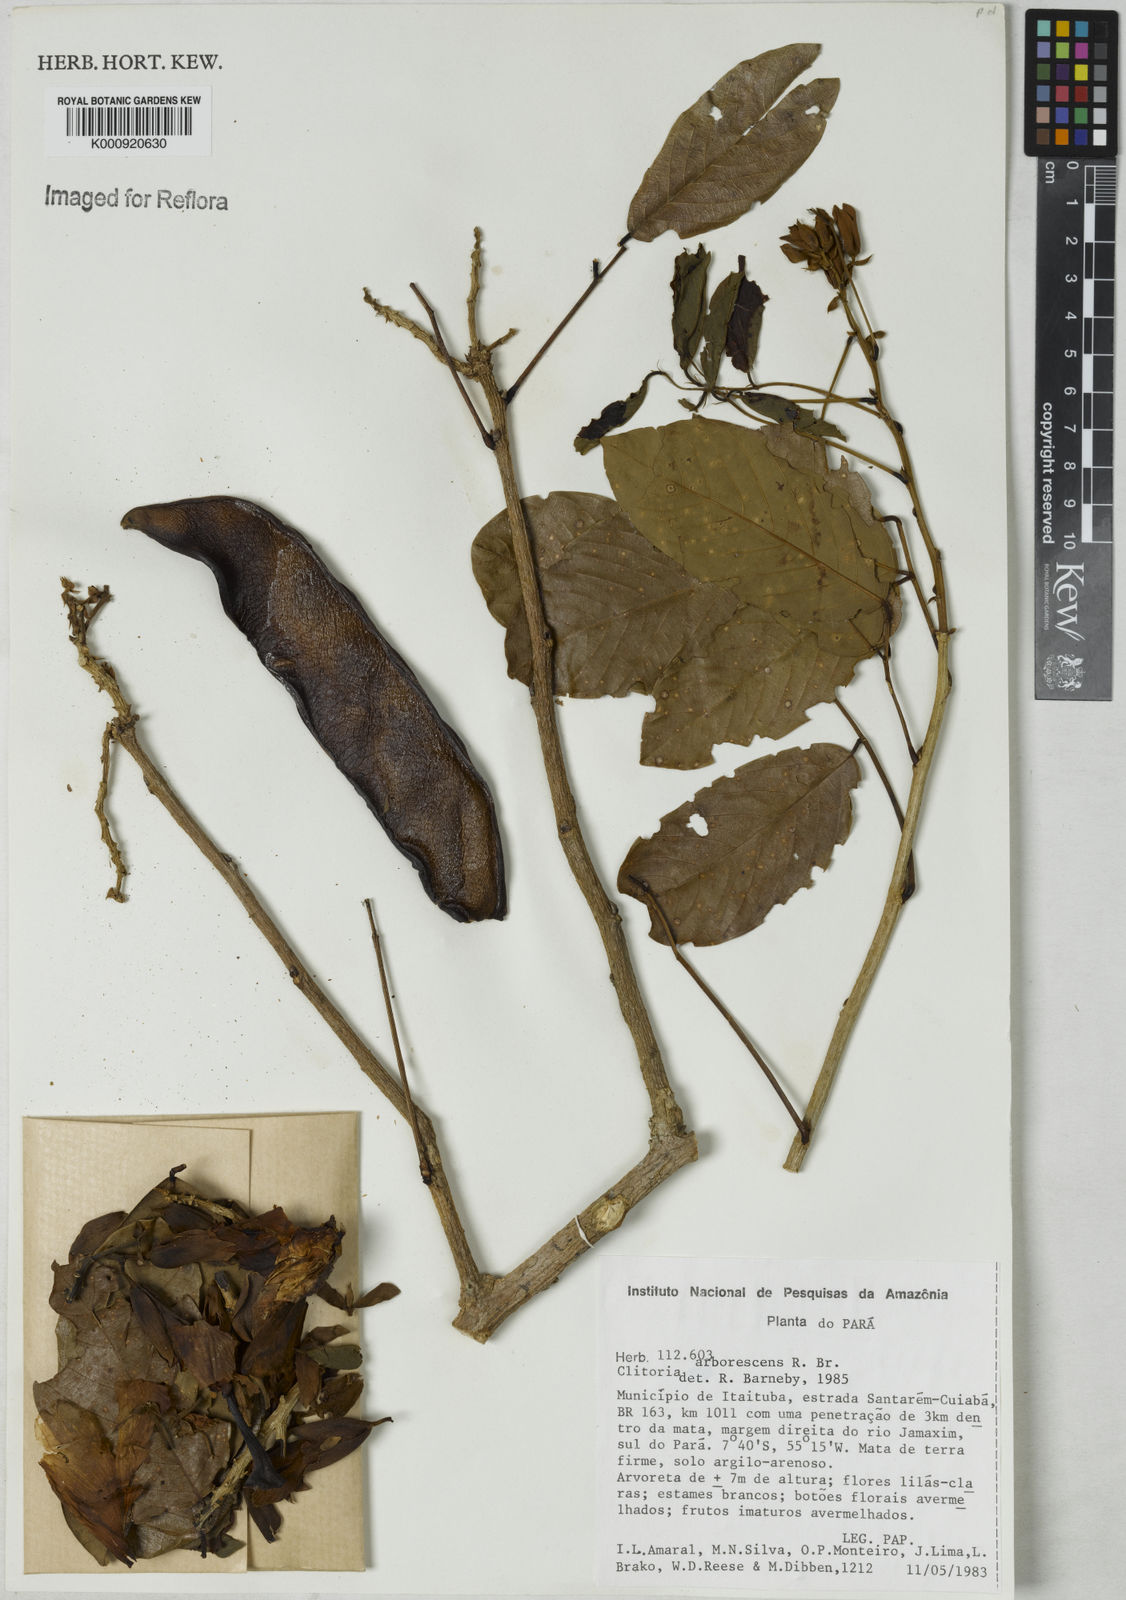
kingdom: Plantae
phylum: Tracheophyta
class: Magnoliopsida
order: Fabales
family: Fabaceae
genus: Clitoria
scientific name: Clitoria arborescens
